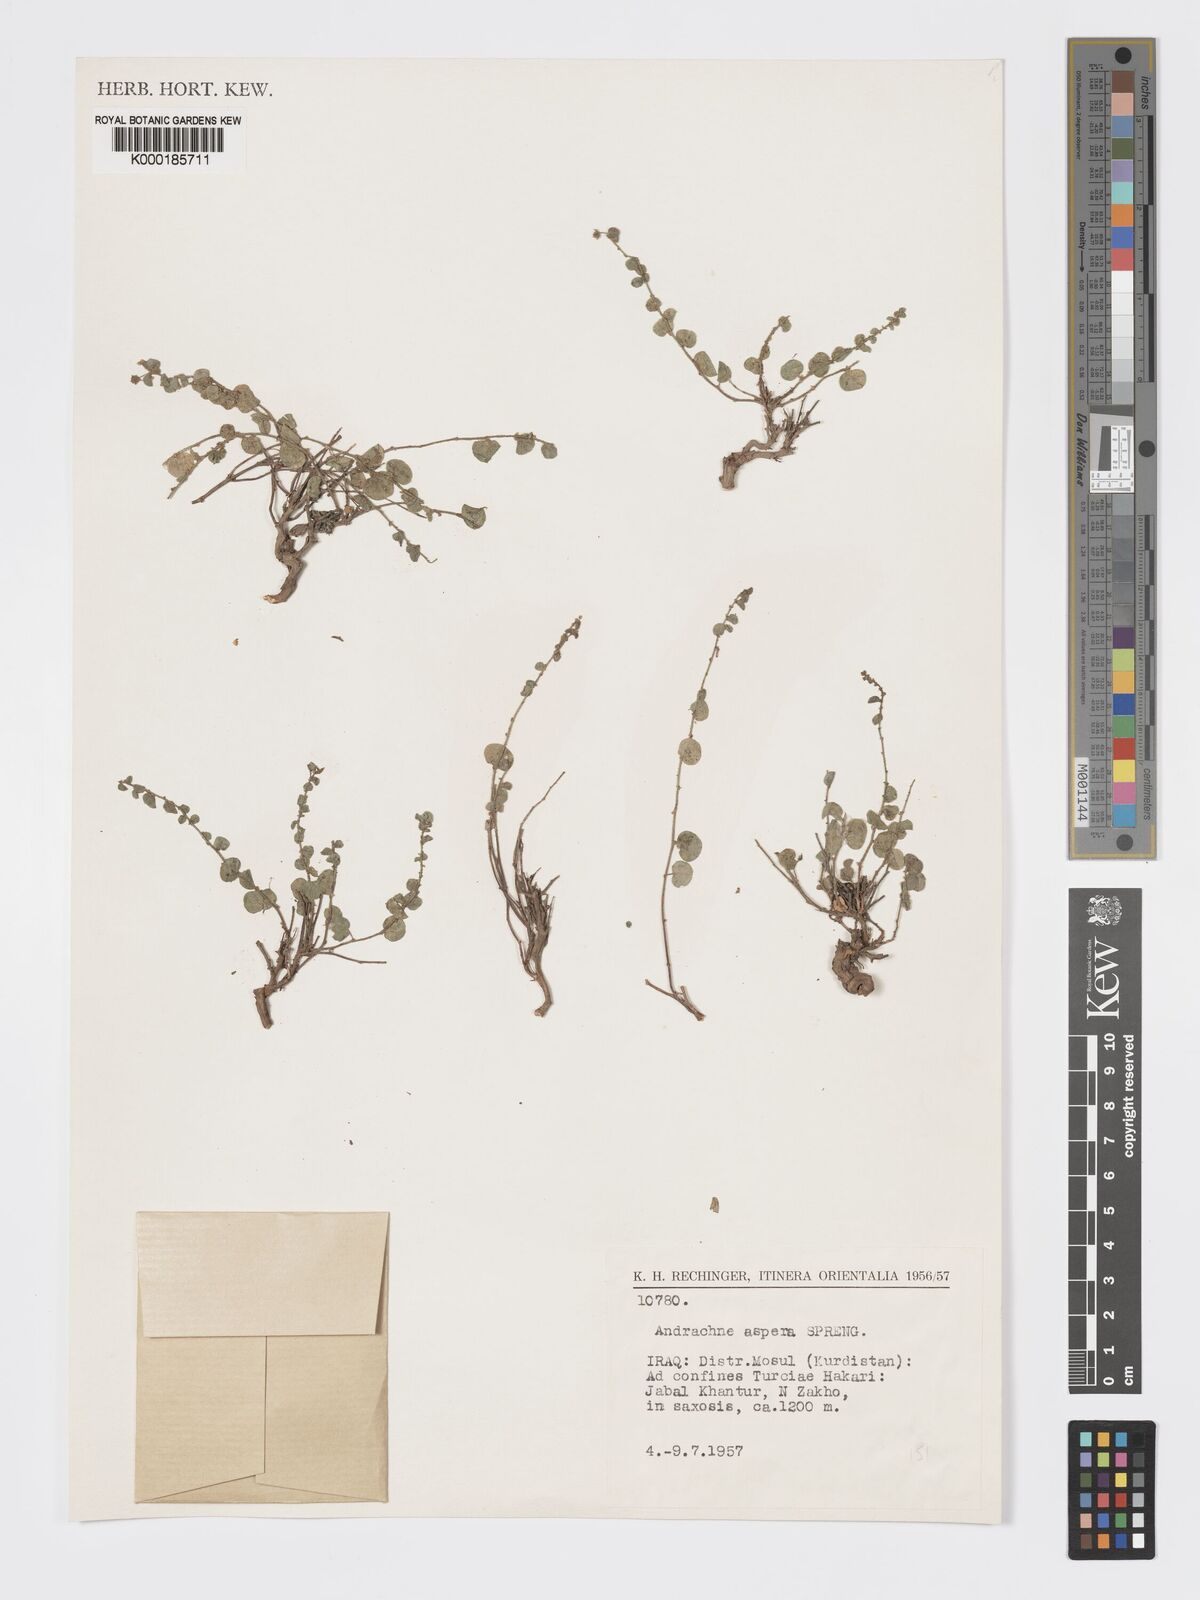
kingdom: Plantae
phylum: Tracheophyta
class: Magnoliopsida
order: Malpighiales
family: Phyllanthaceae
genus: Andrachne
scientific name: Andrachne aspera
